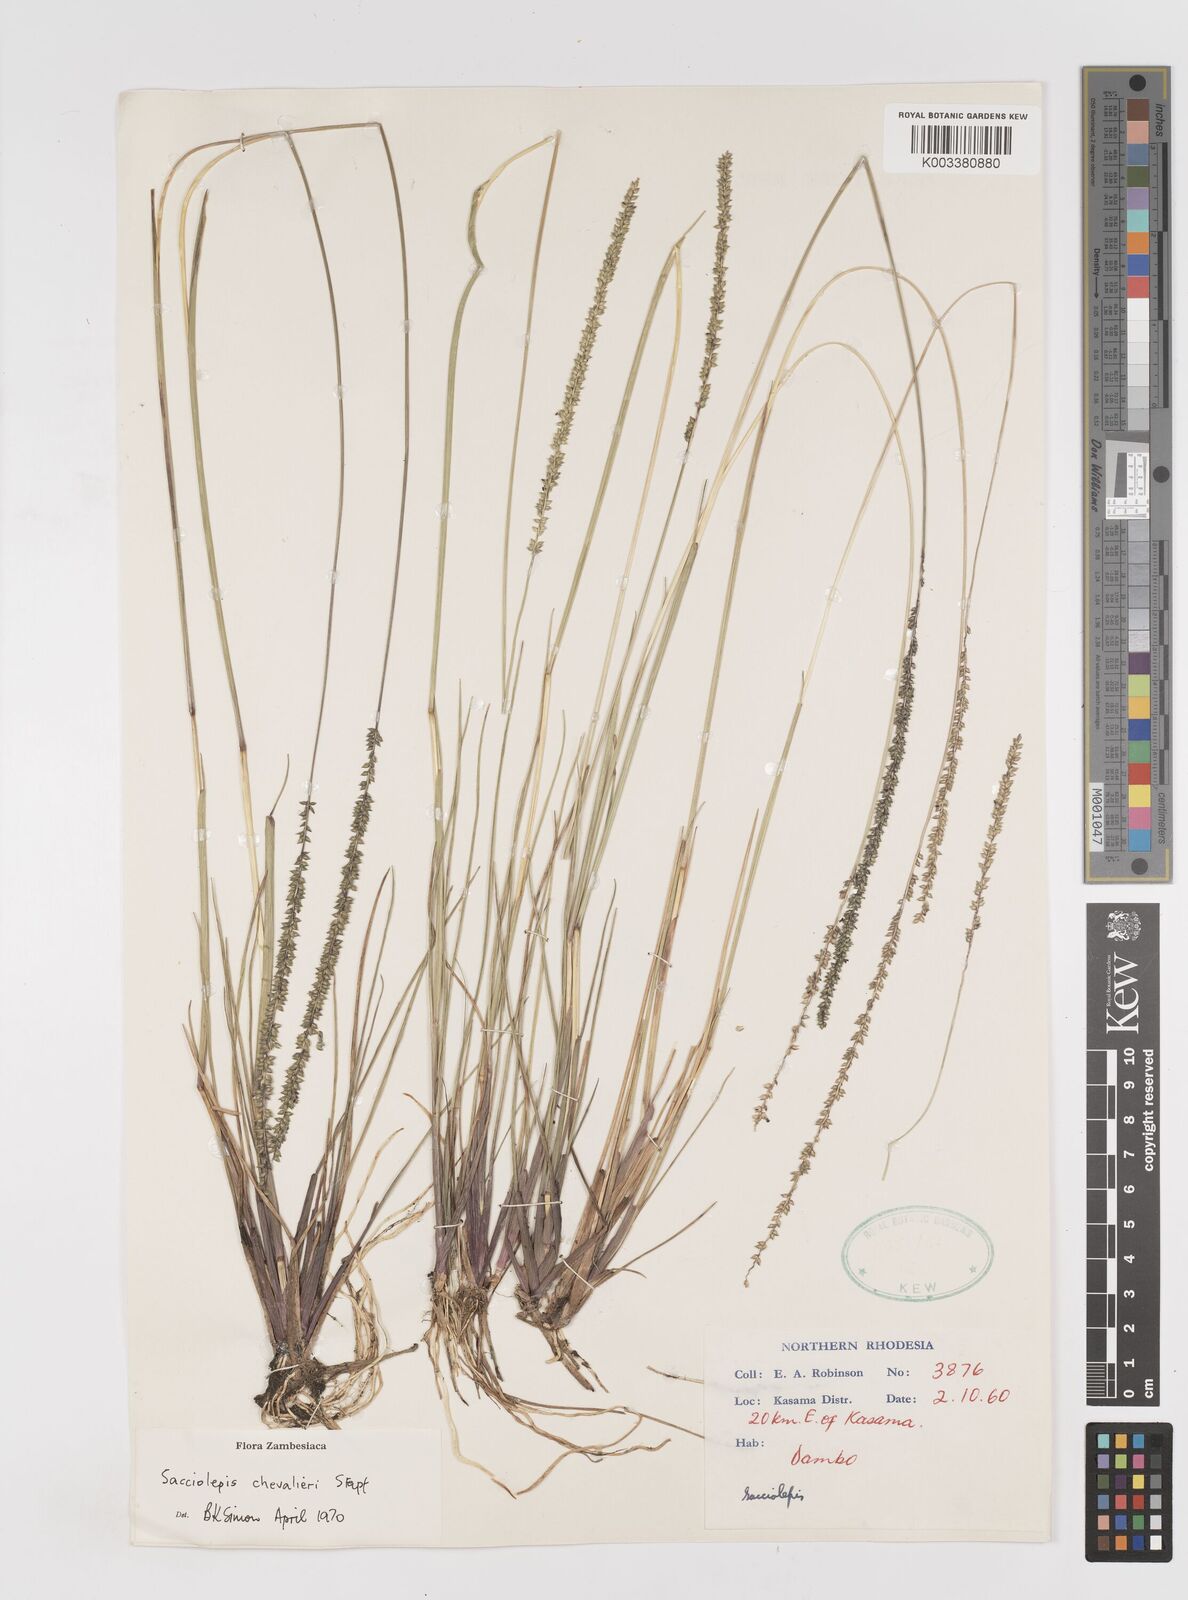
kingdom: Plantae
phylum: Tracheophyta
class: Liliopsida
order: Poales
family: Poaceae
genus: Sacciolepis
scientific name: Sacciolepis chevalieri
